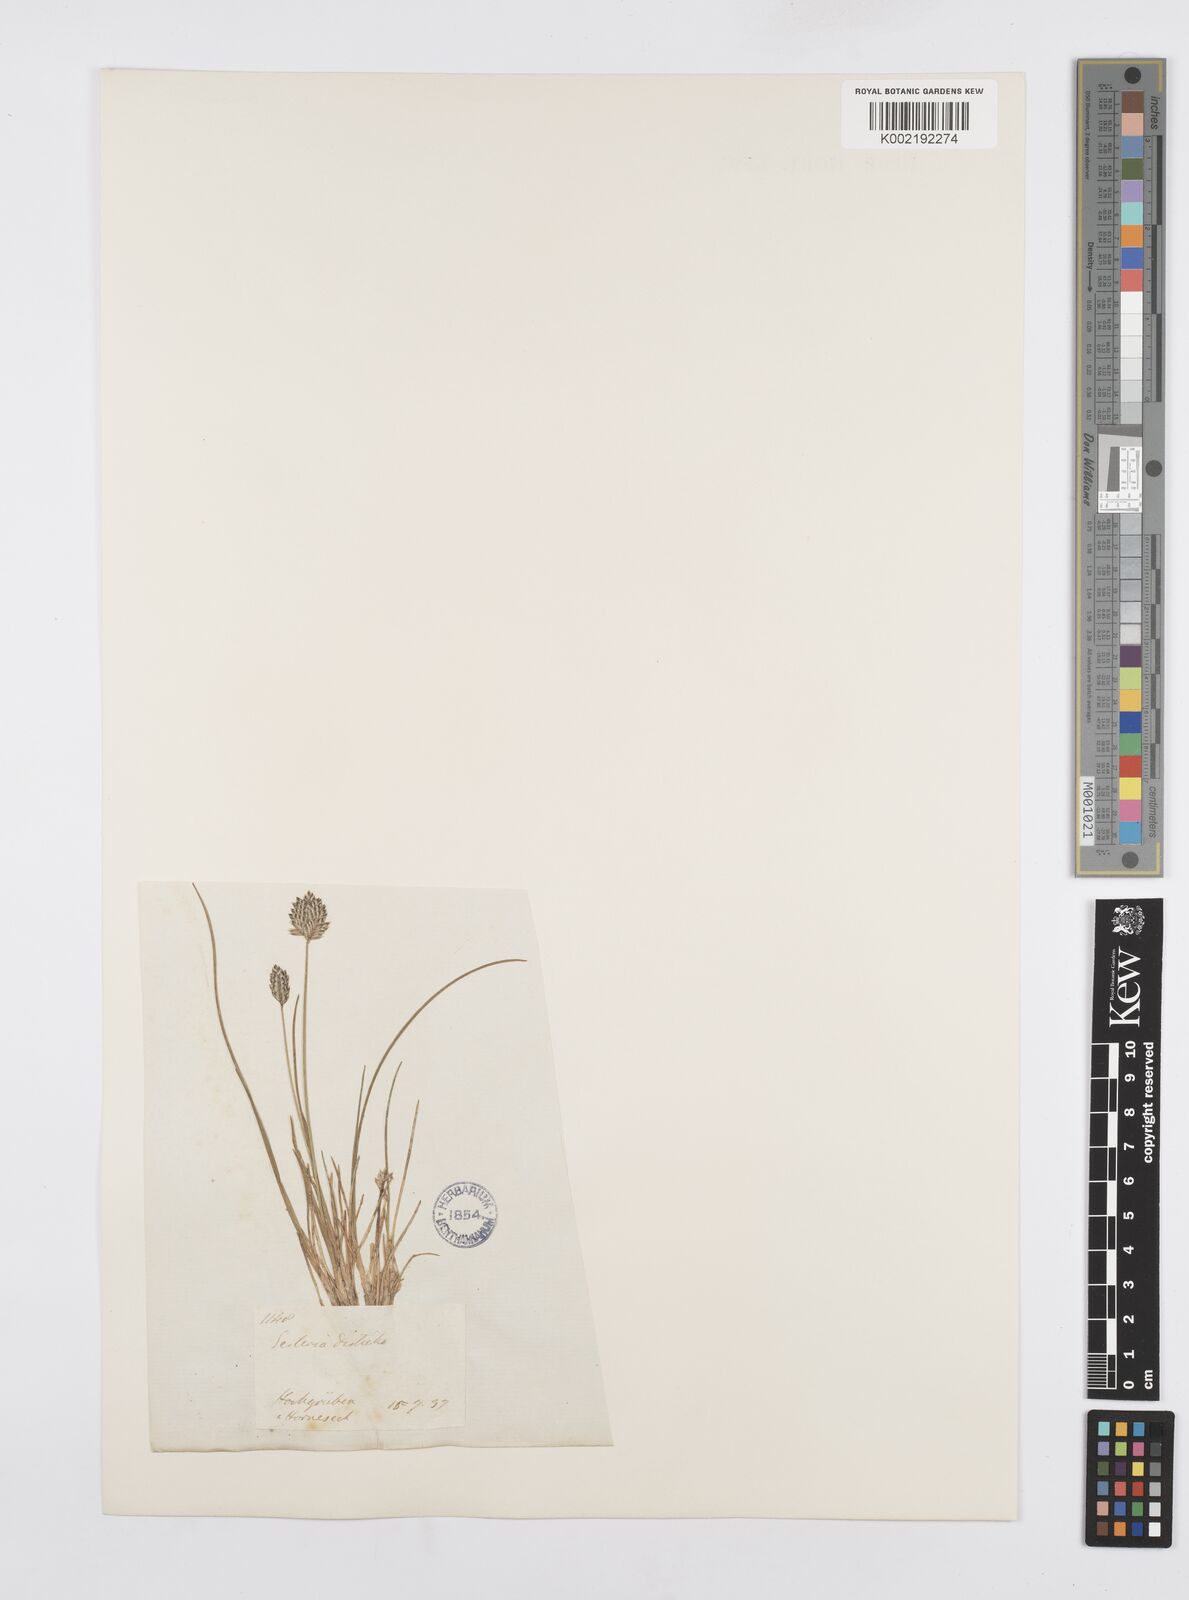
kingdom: Plantae
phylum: Tracheophyta
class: Liliopsida
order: Poales
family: Poaceae
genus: Oreochloa
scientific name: Oreochloa disticha
